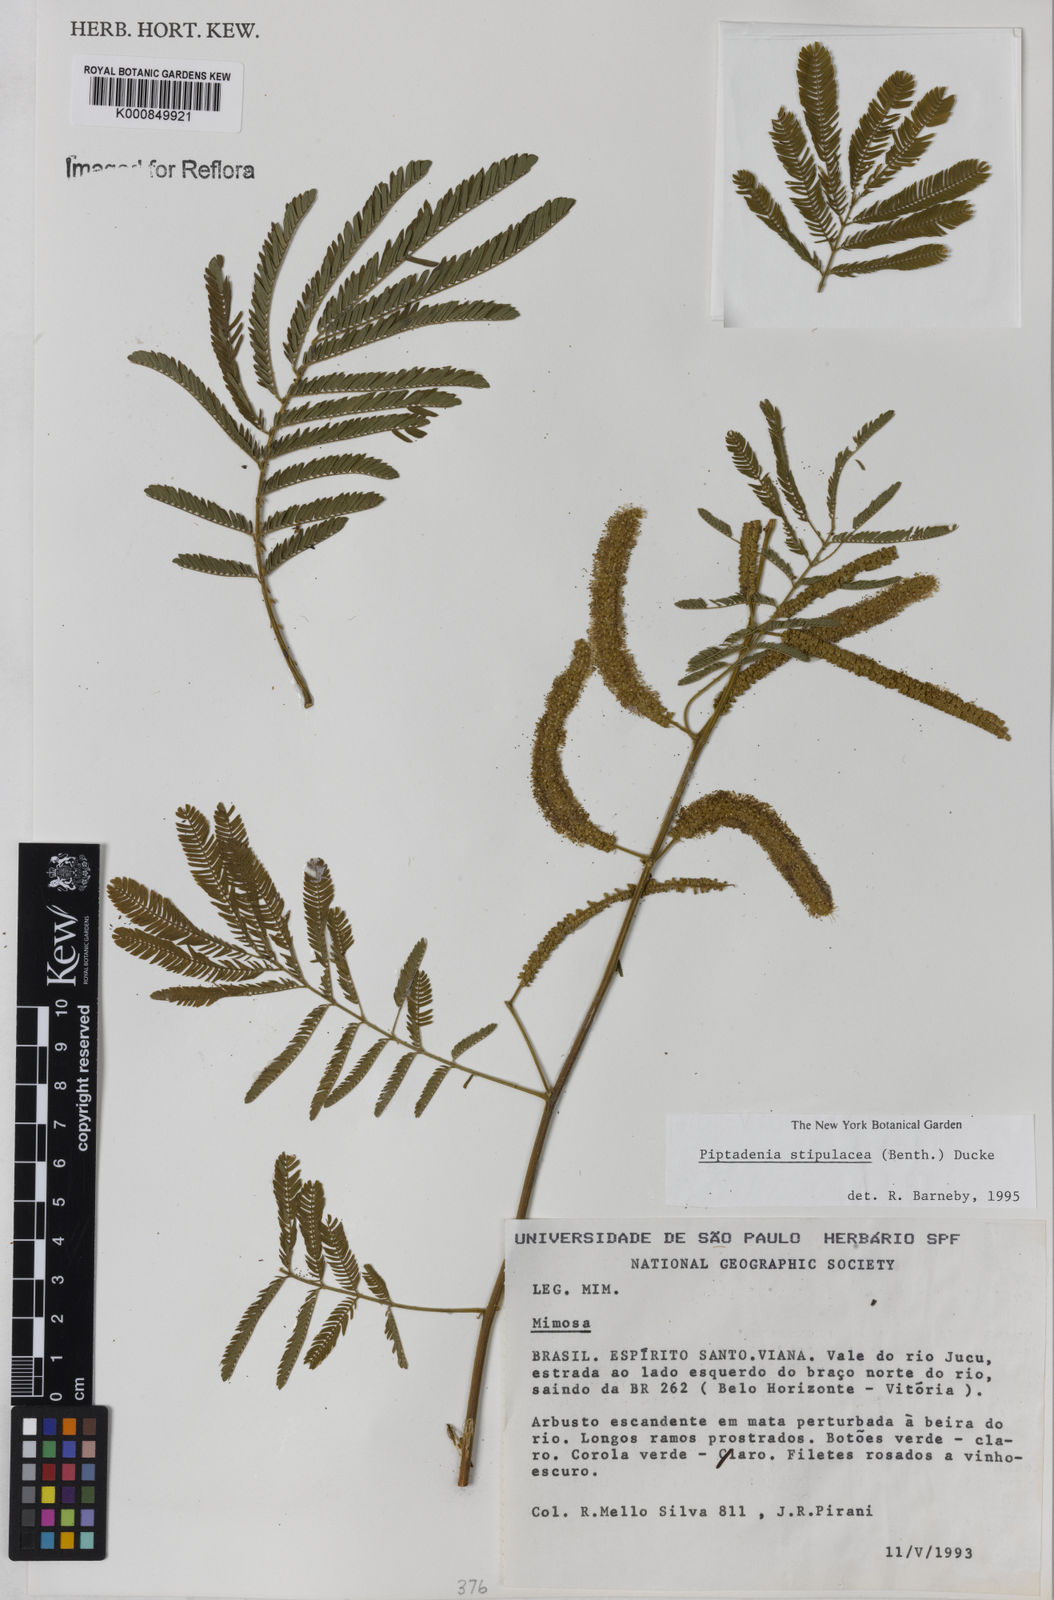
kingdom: Plantae
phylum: Tracheophyta
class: Magnoliopsida
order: Fabales
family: Fabaceae
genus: Piptadenia
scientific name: Piptadenia retusa
